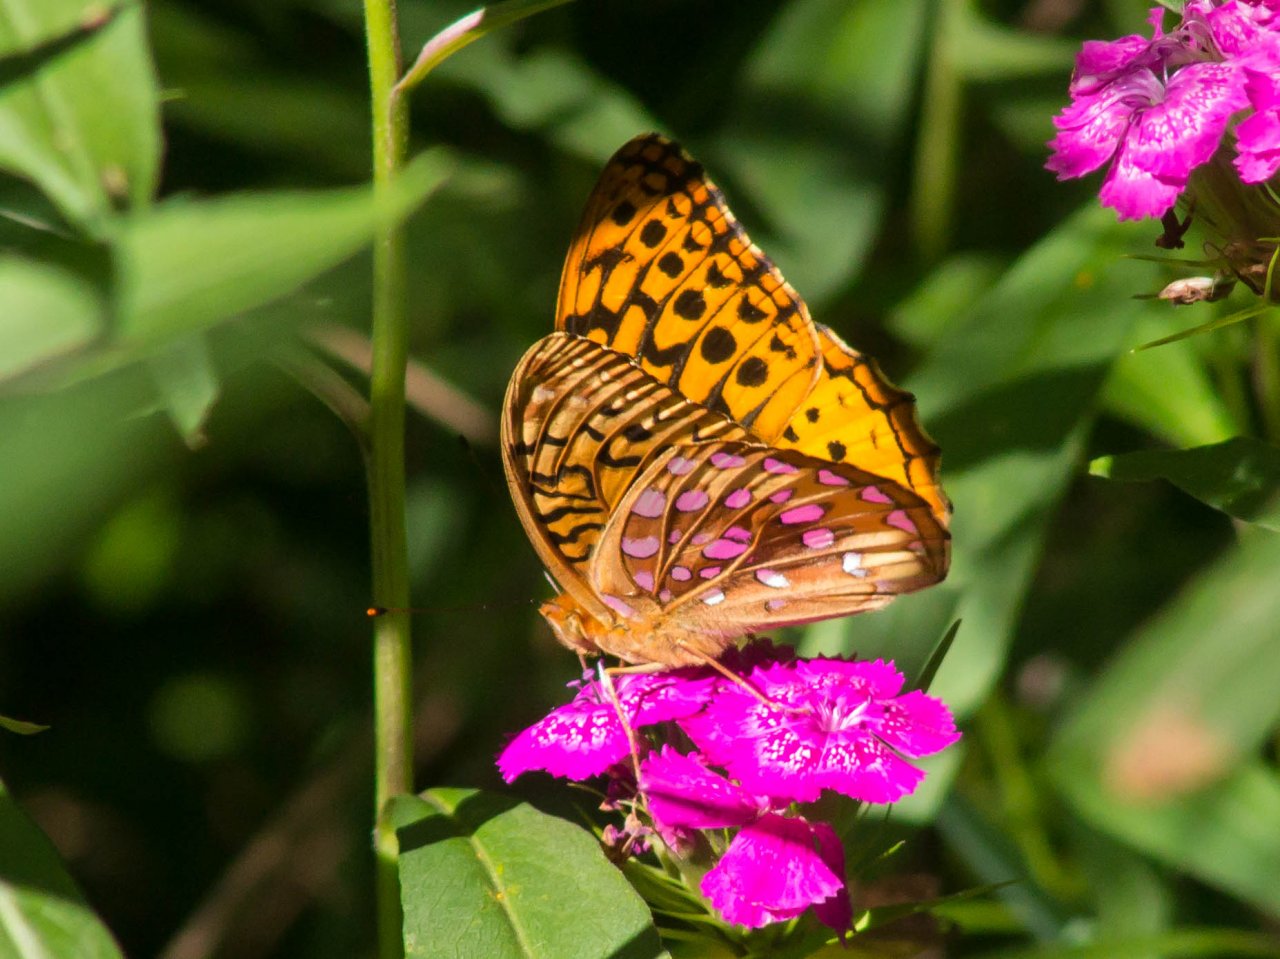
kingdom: Animalia
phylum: Arthropoda
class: Insecta
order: Lepidoptera
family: Nymphalidae
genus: Speyeria
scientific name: Speyeria cybele
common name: Great Spangled Fritillary
